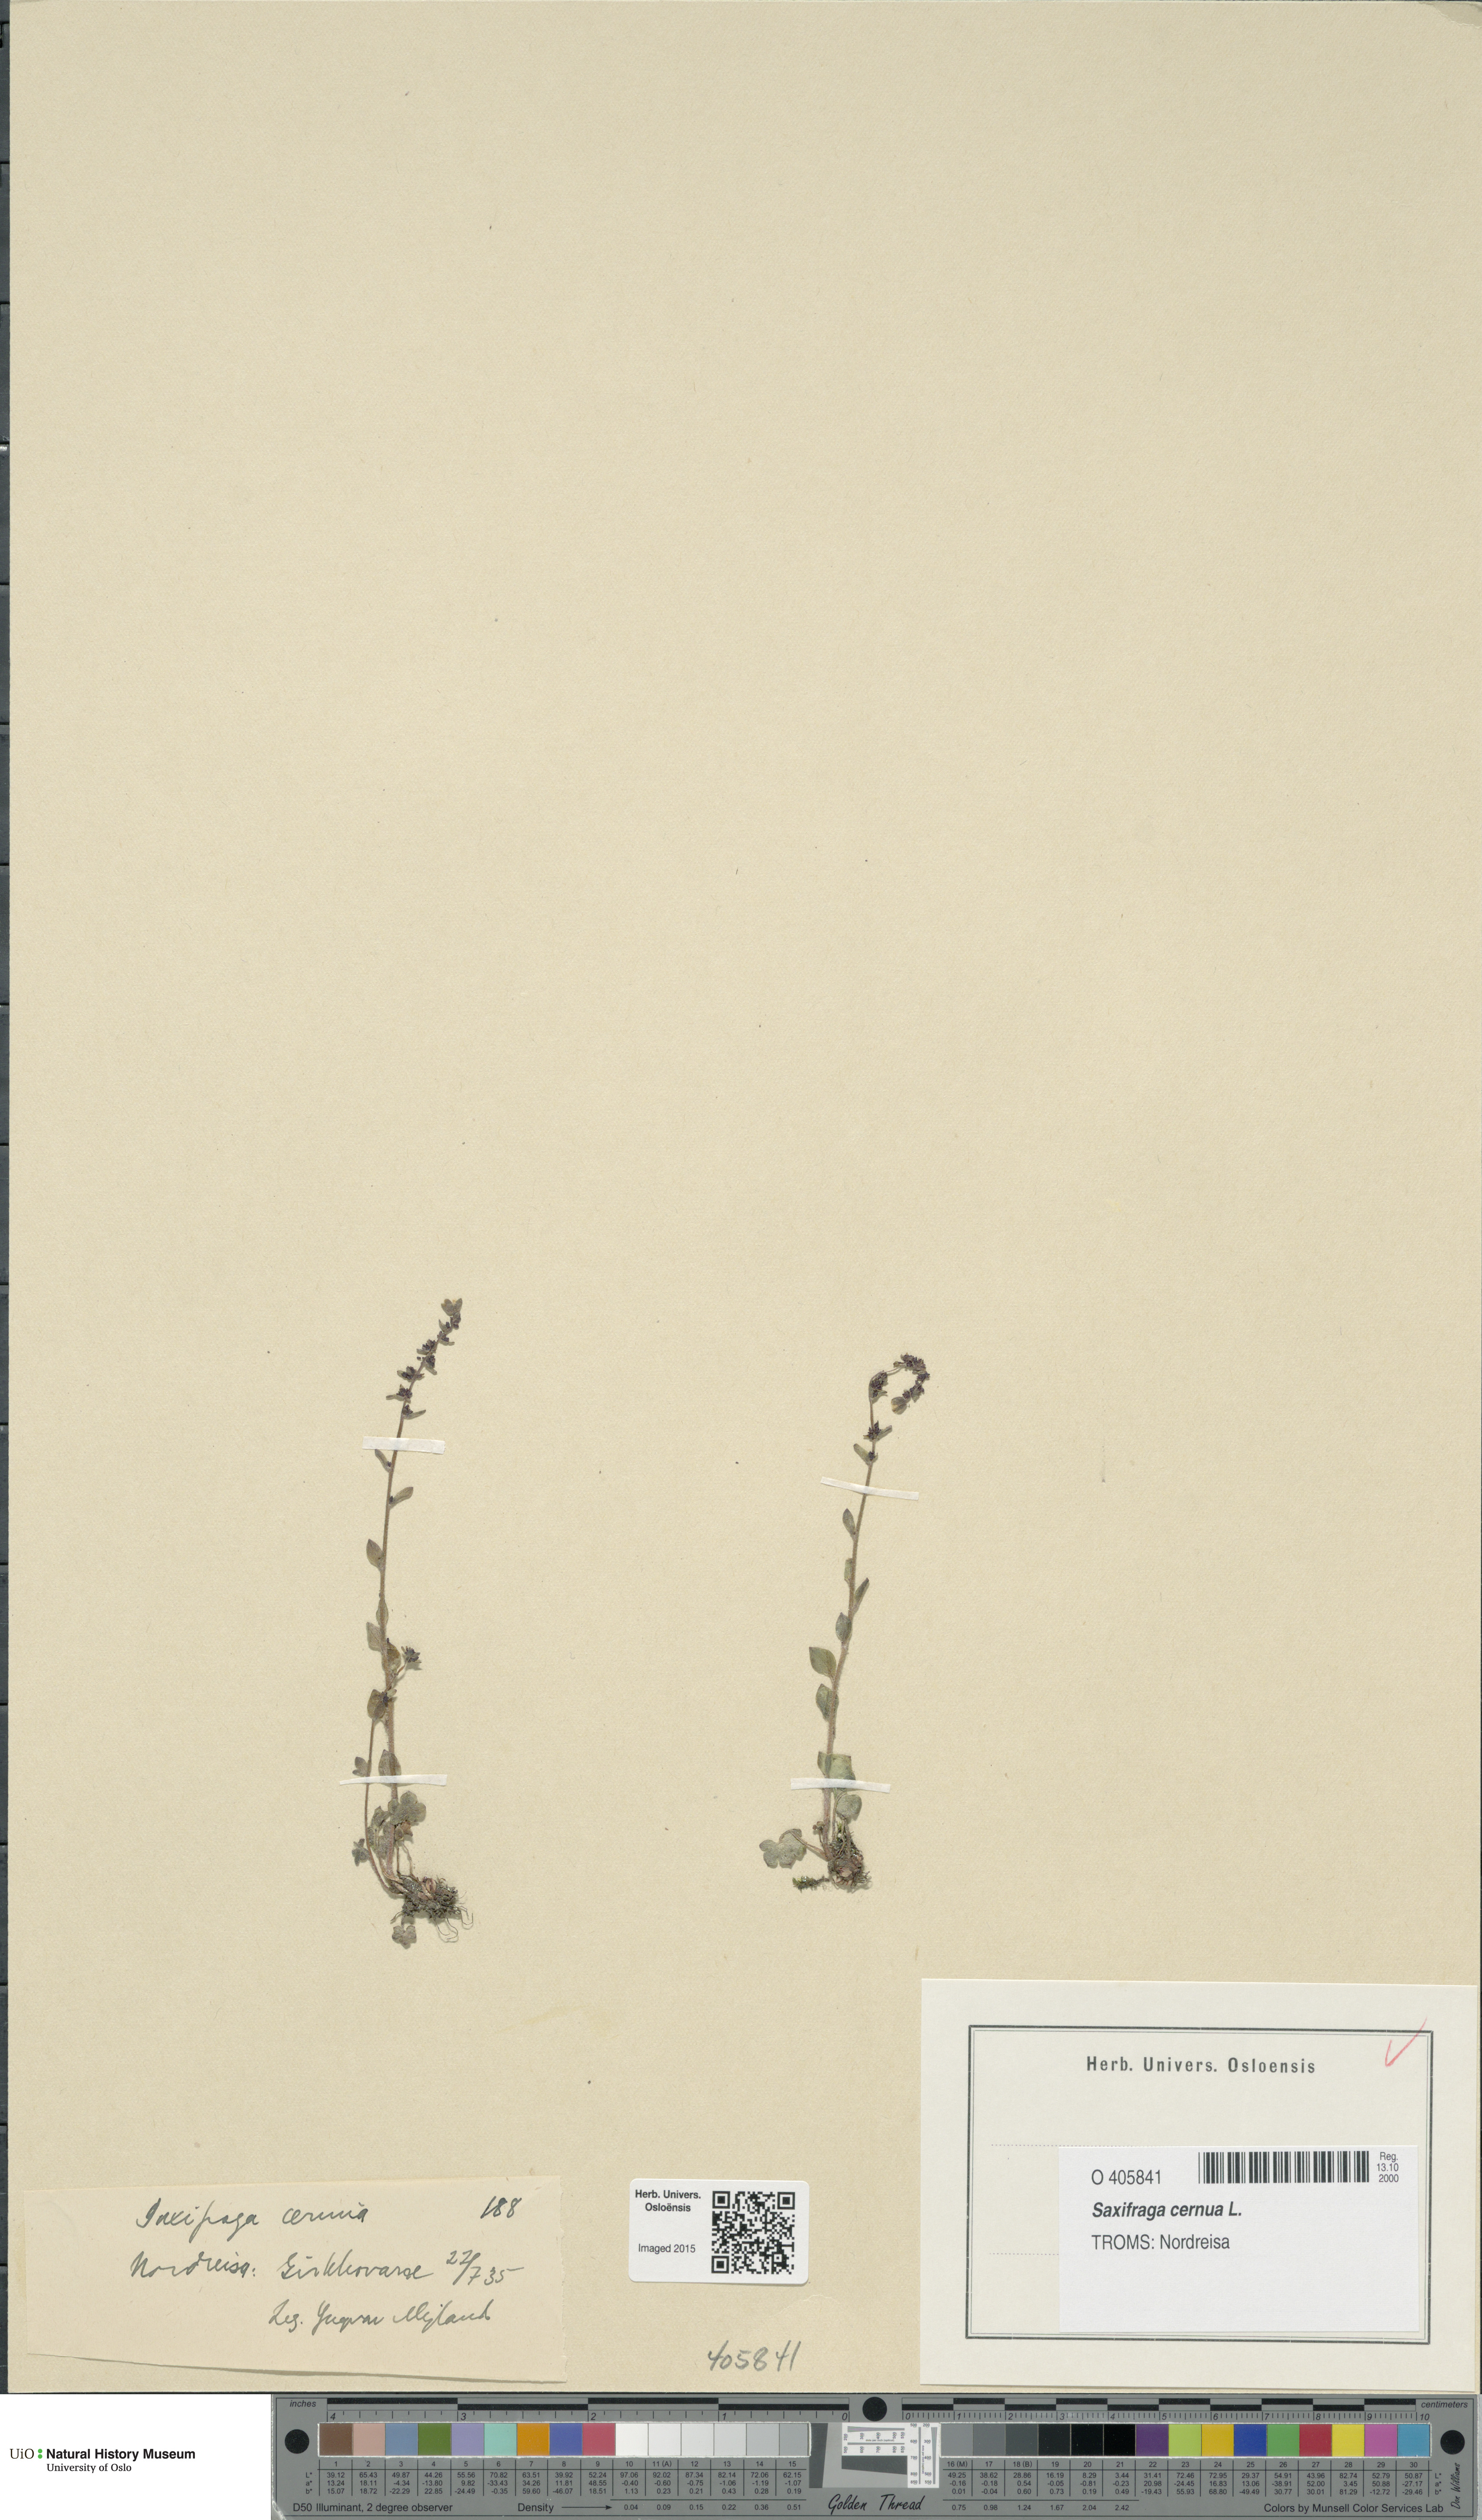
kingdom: Plantae
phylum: Tracheophyta
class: Magnoliopsida
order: Saxifragales
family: Saxifragaceae
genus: Saxifraga
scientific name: Saxifraga cernua
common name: Drooping saxifrage
